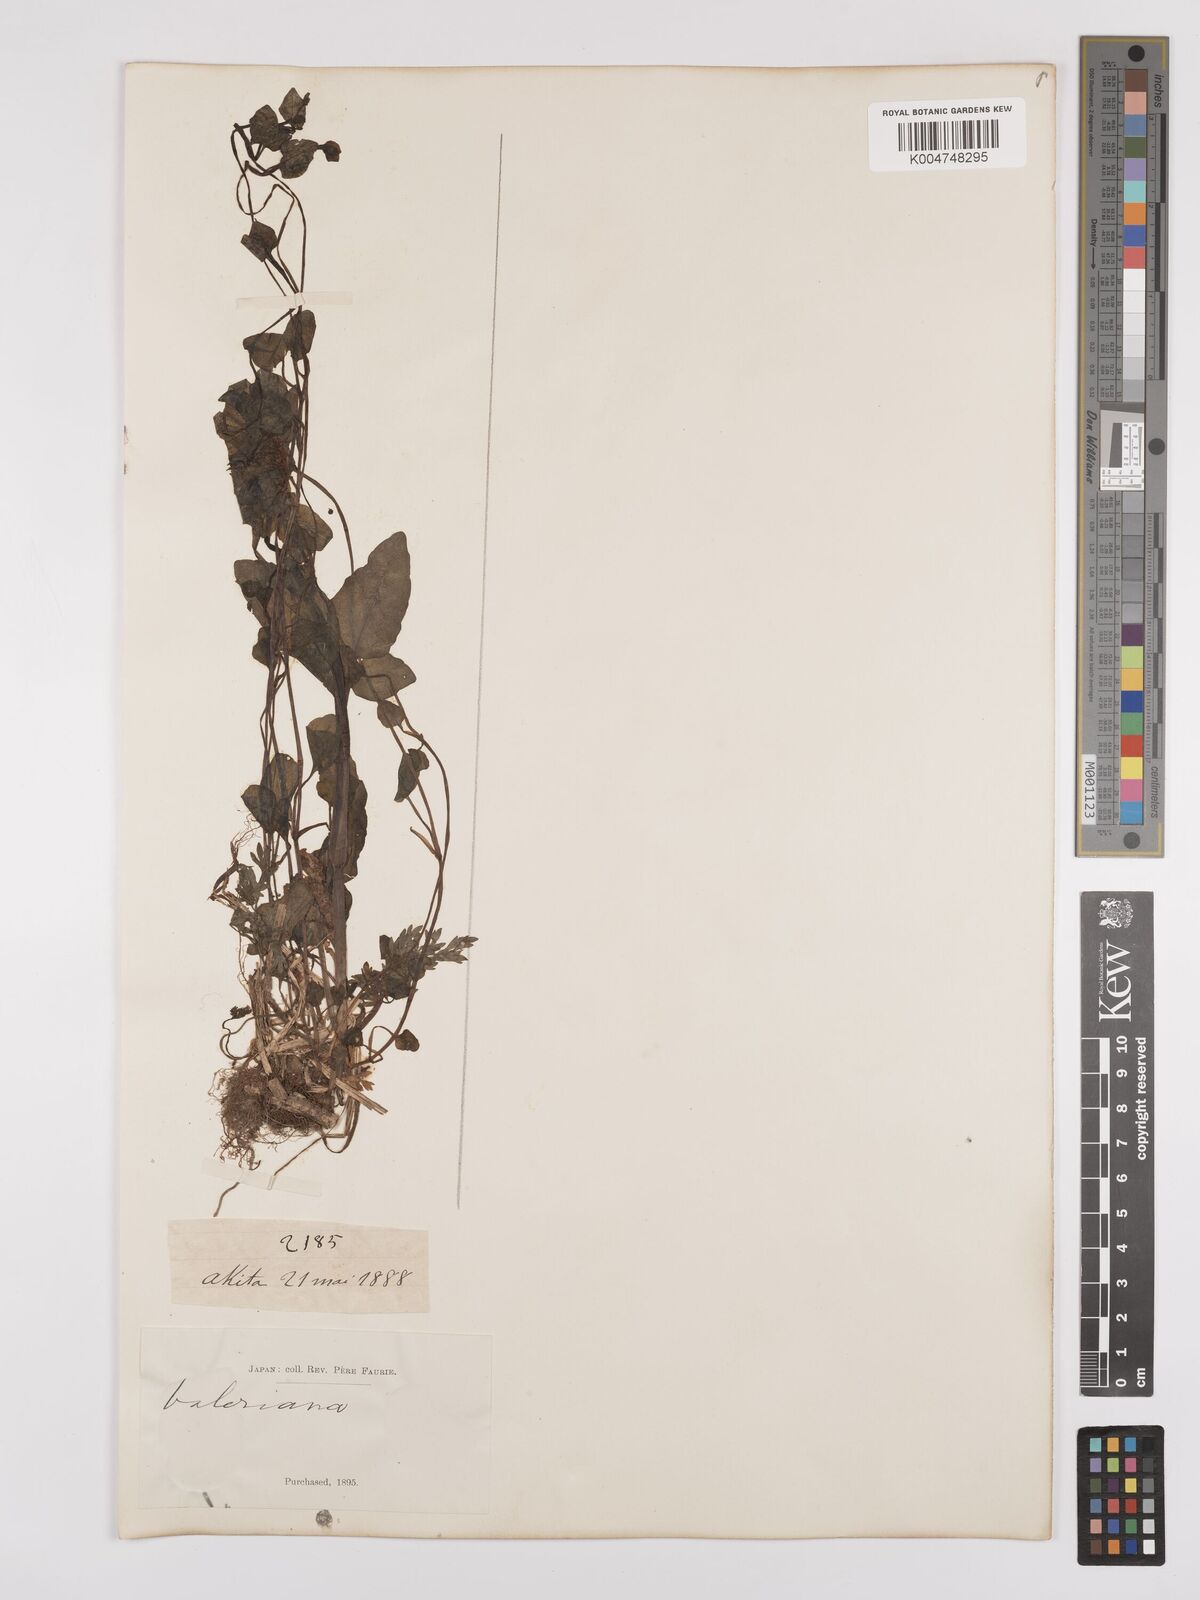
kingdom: Plantae
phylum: Tracheophyta
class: Magnoliopsida
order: Dipsacales
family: Caprifoliaceae
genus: Valeriana
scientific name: Valeriana flaccidissima
